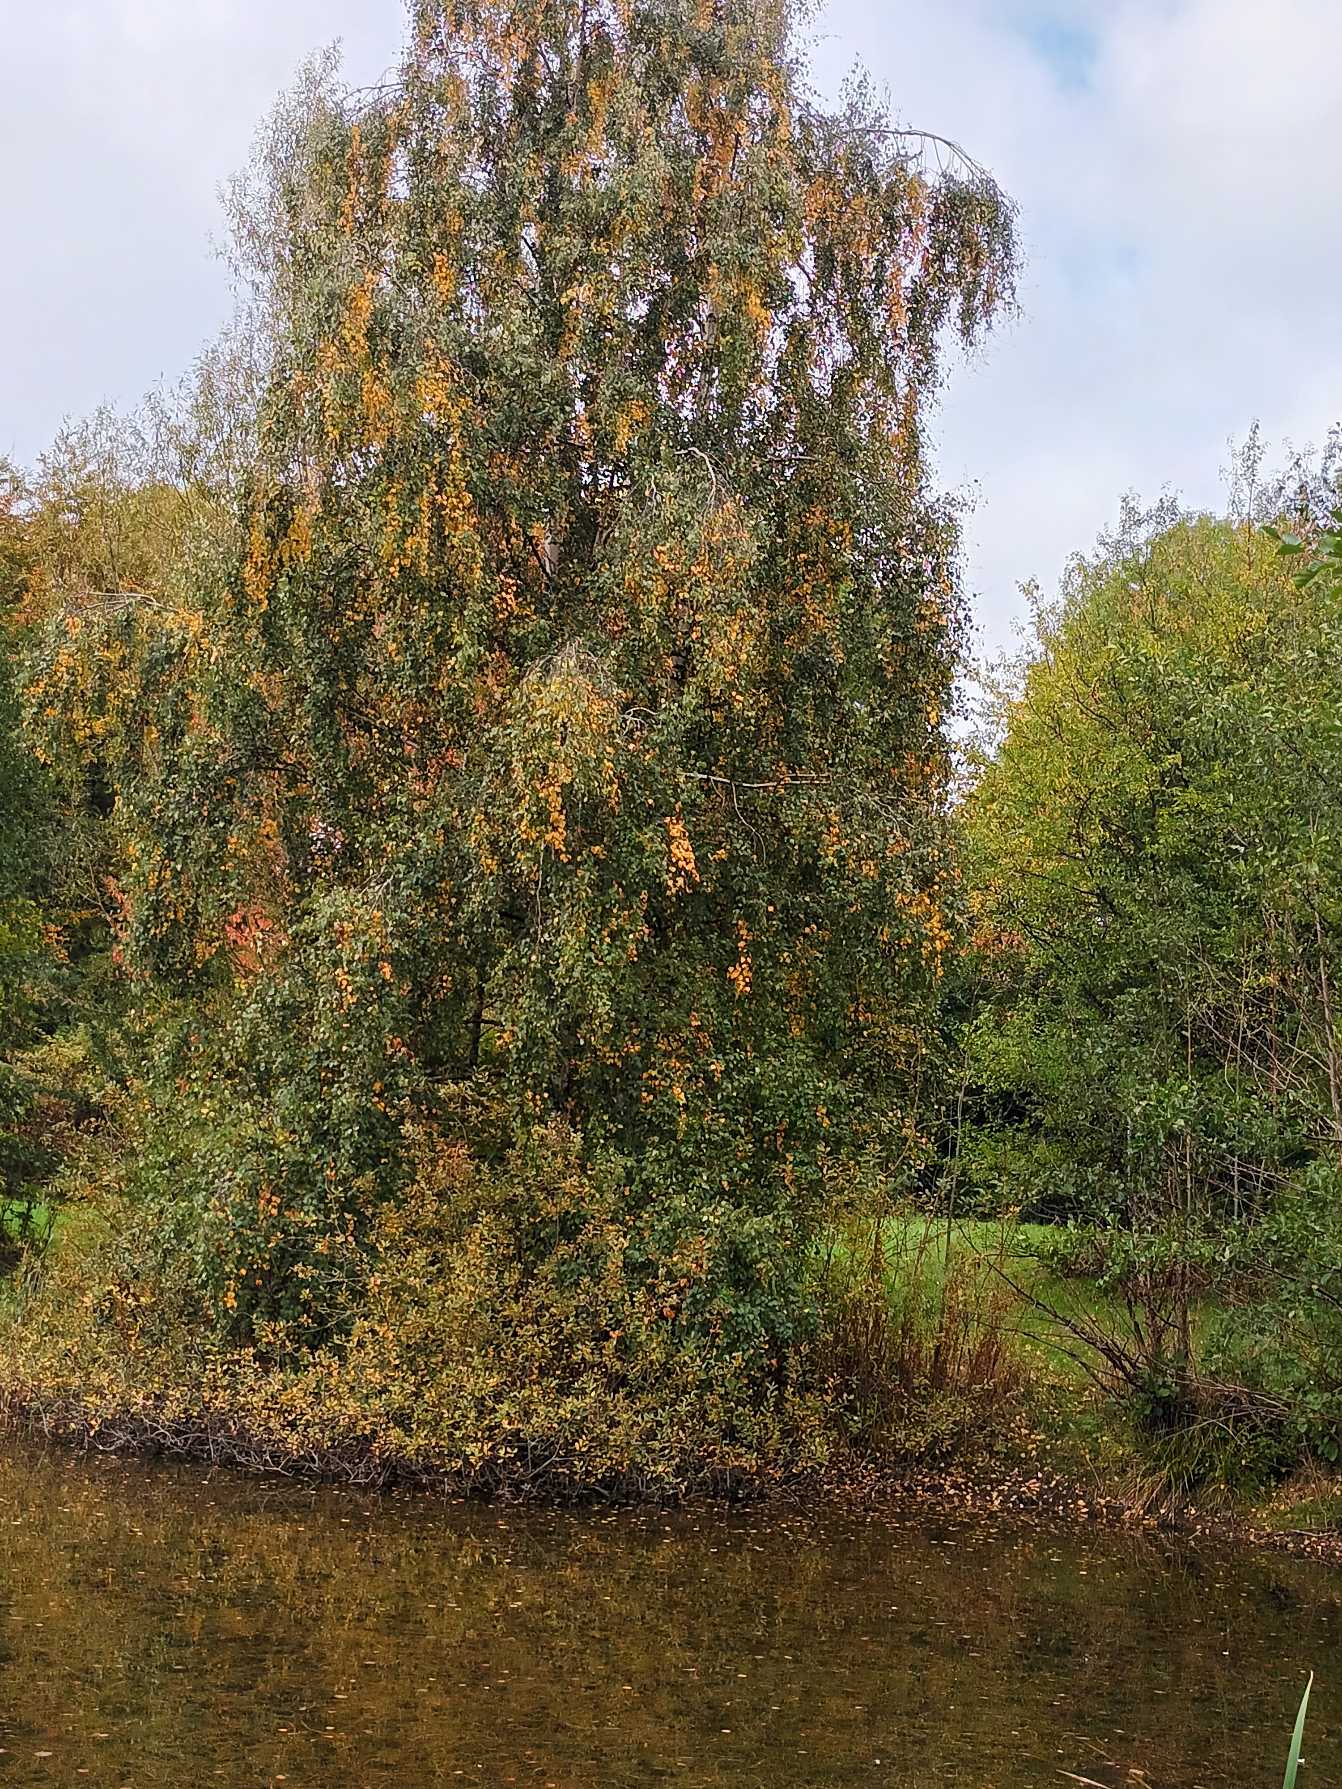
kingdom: Plantae
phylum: Tracheophyta
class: Magnoliopsida
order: Fagales
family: Betulaceae
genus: Betula
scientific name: Betula pendula
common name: Vorte-birk
